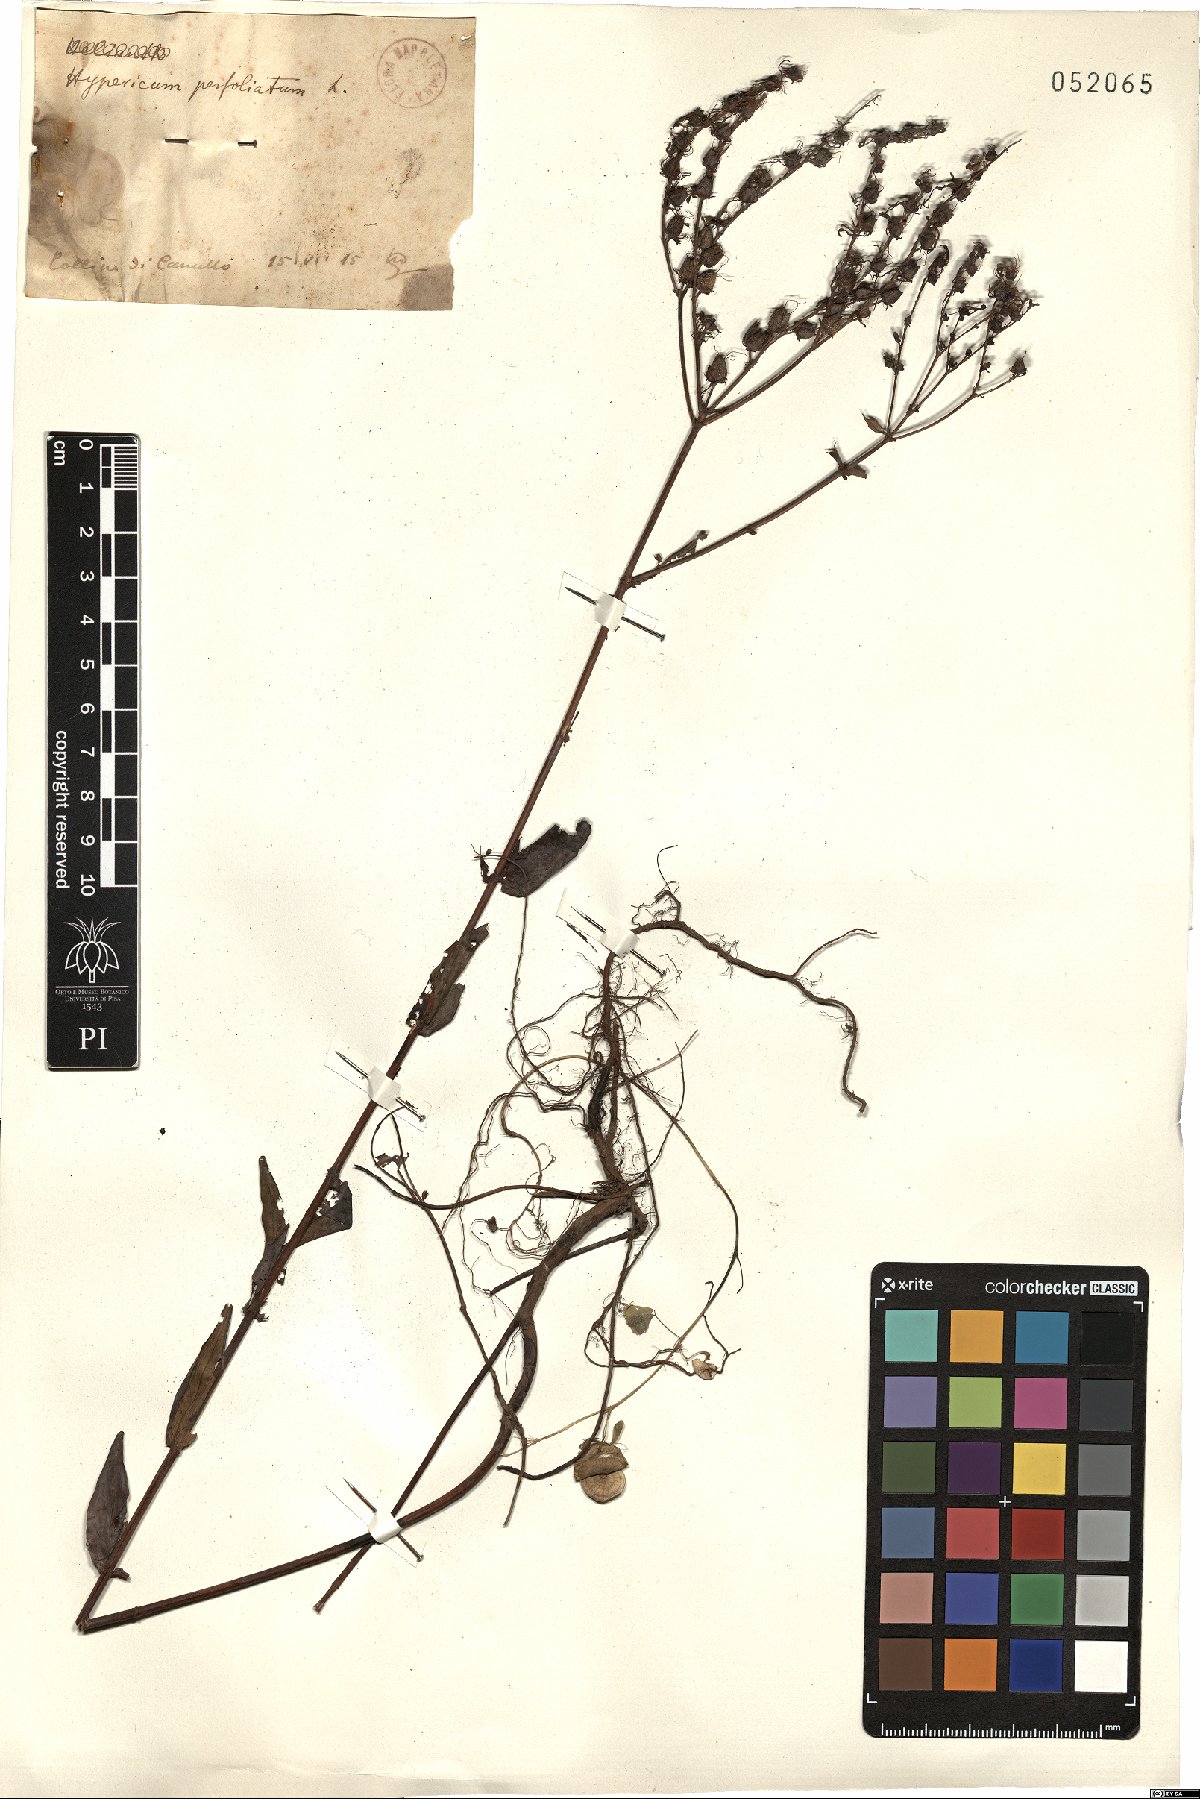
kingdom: Plantae
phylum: Tracheophyta
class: Magnoliopsida
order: Malpighiales
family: Hypericaceae
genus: Hypericum
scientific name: Hypericum perfoliatum
